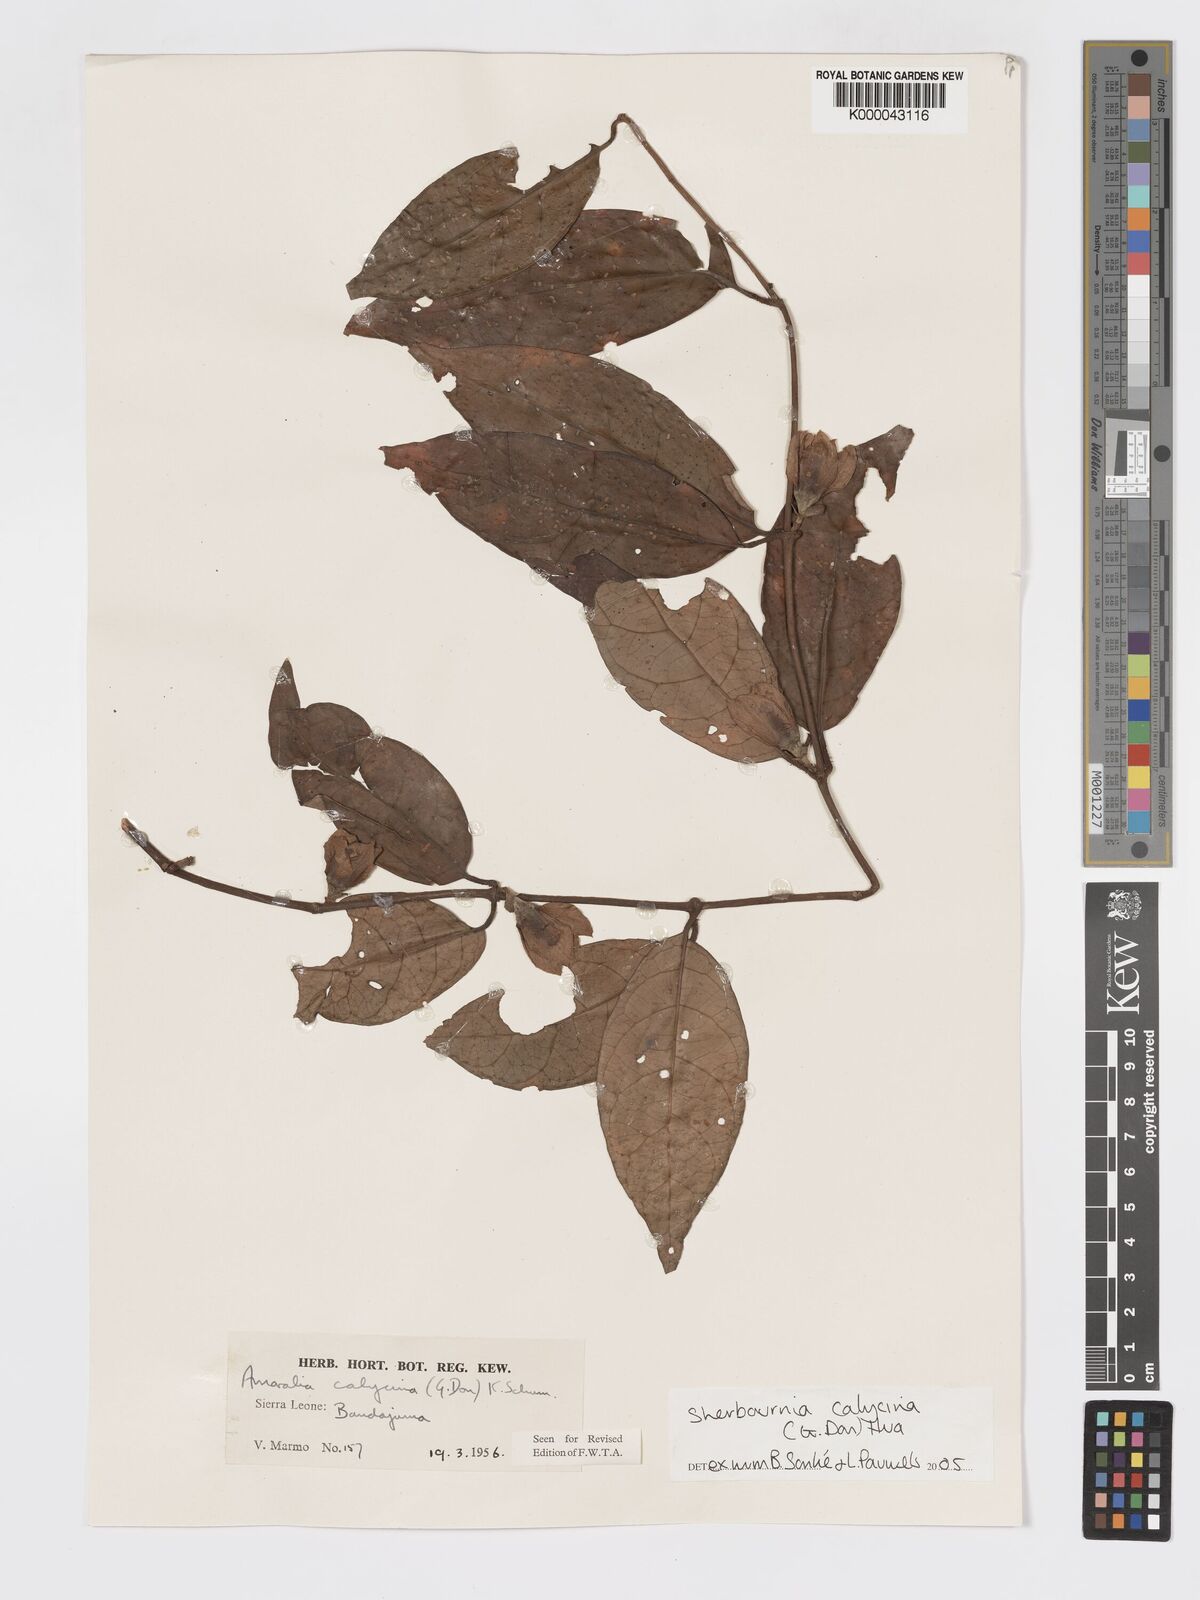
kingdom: Plantae
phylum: Tracheophyta
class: Magnoliopsida
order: Gentianales
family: Rubiaceae
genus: Sherbournia
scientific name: Sherbournia calycina
